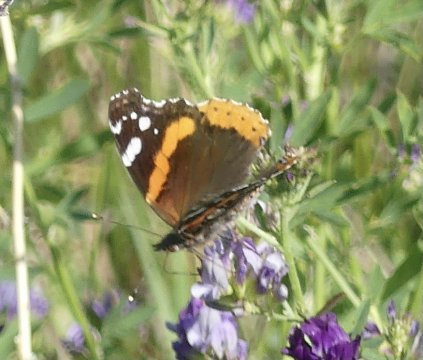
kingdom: Animalia
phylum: Arthropoda
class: Insecta
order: Lepidoptera
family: Nymphalidae
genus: Vanessa
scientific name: Vanessa atalanta
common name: Red Admiral
